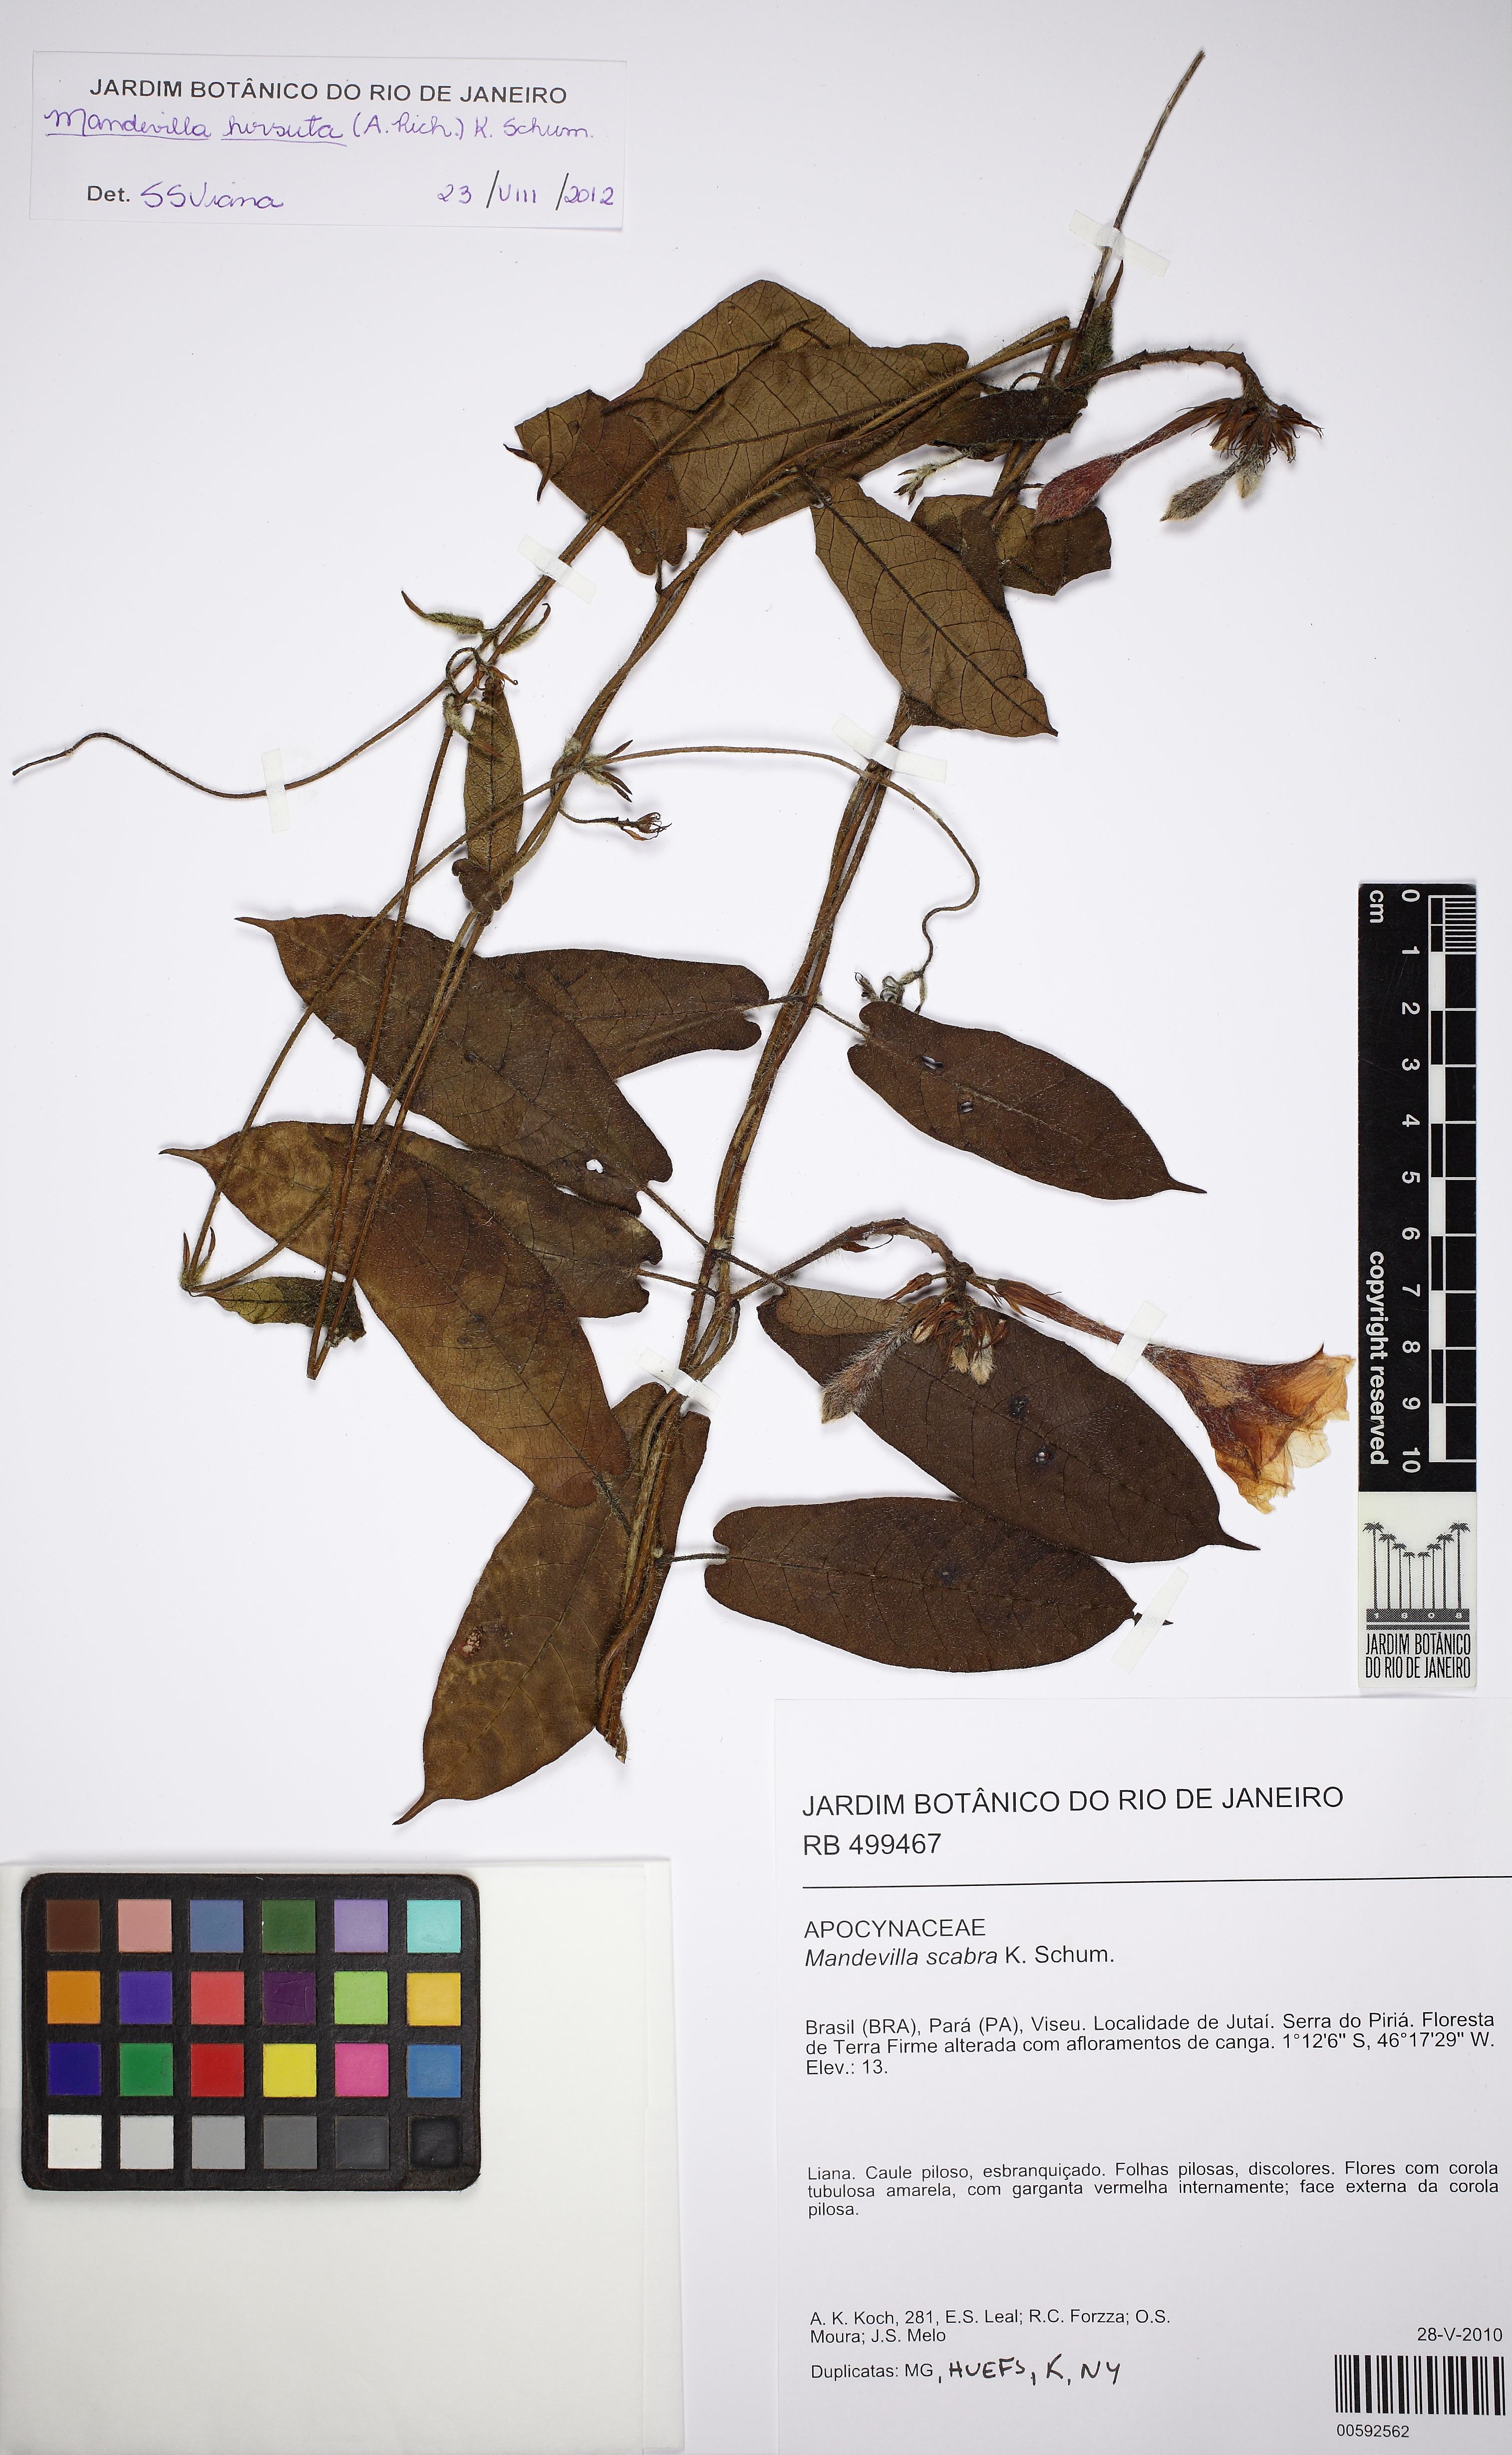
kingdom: Plantae
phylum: Tracheophyta
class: Magnoliopsida
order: Gentianales
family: Apocynaceae
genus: Mandevilla
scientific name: Mandevilla hirsuta
